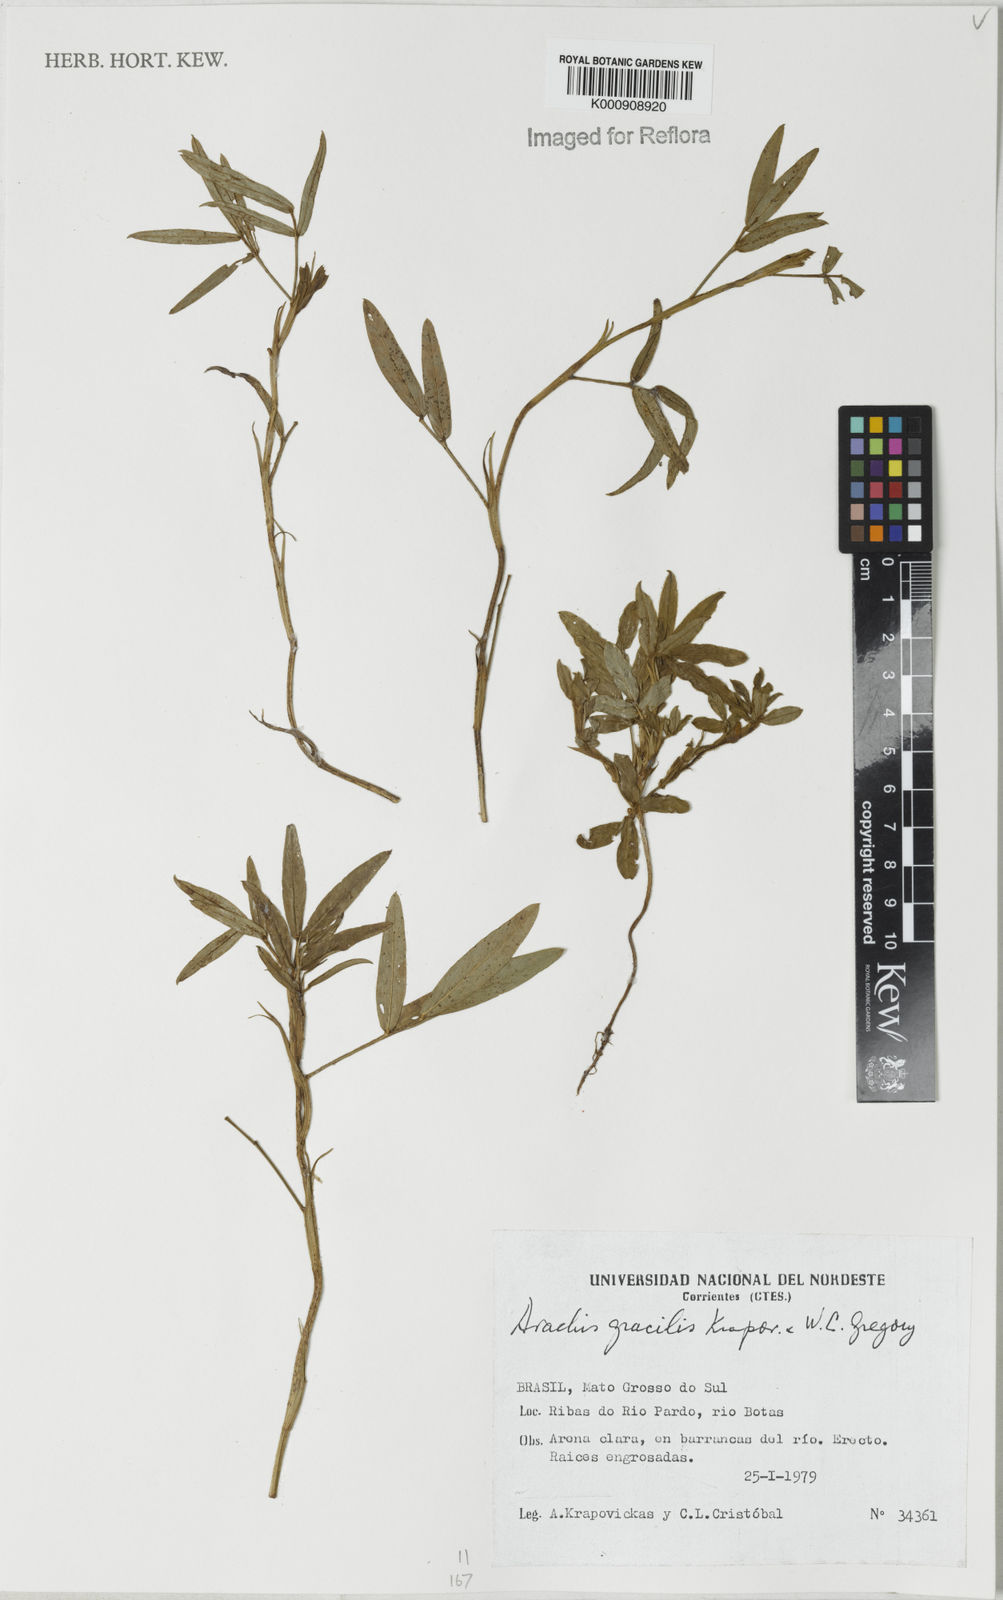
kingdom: Plantae
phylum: Tracheophyta
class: Magnoliopsida
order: Fabales
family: Fabaceae
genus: Arachis
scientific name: Arachis gracilis
